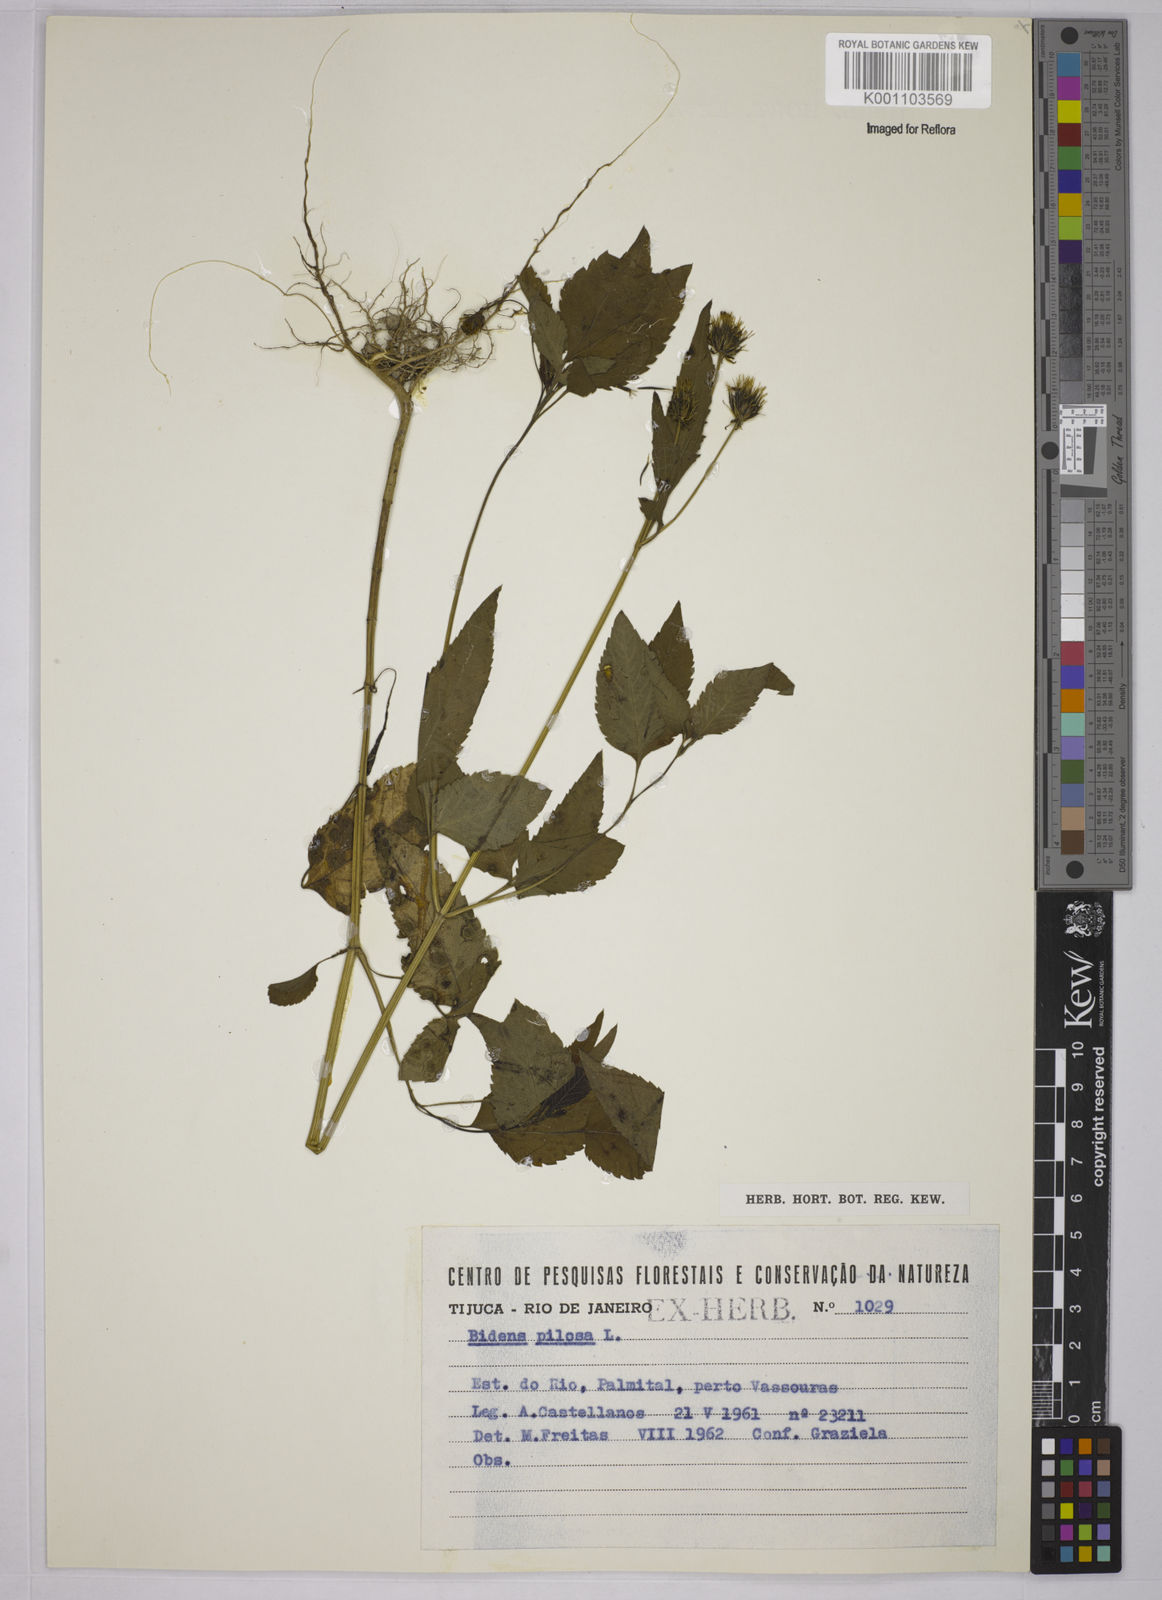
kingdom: Plantae
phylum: Tracheophyta
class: Magnoliopsida
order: Asterales
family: Asteraceae
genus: Bidens
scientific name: Bidens pilosa
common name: Black-jack
